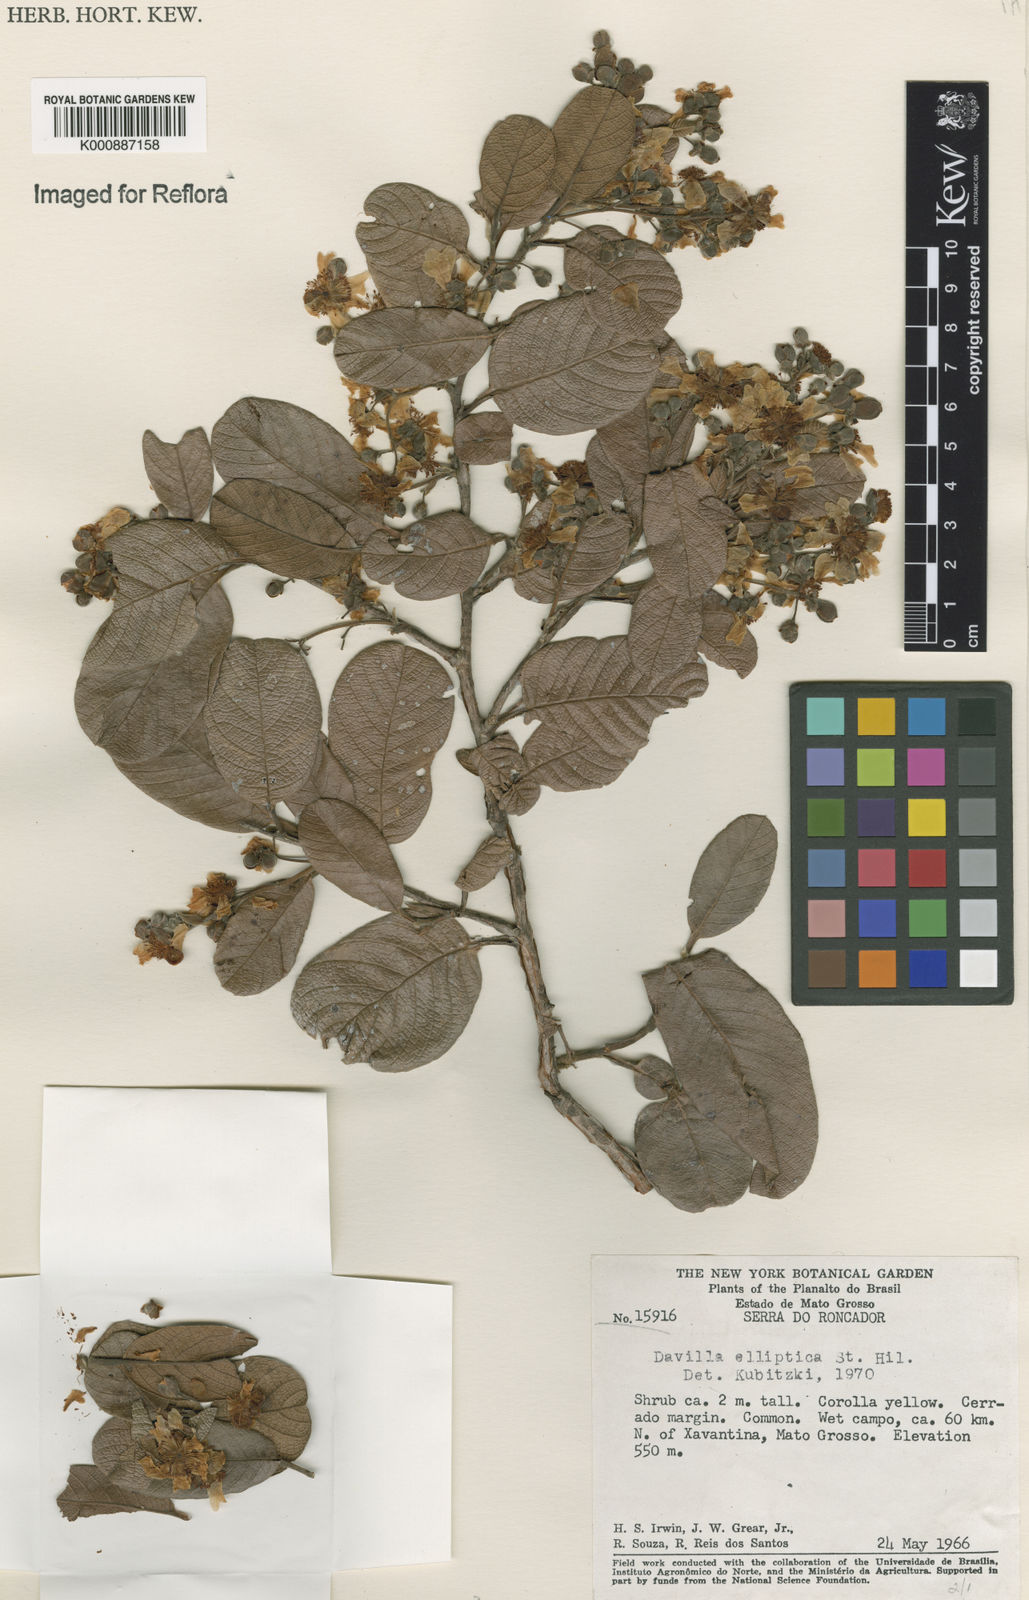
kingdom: Plantae
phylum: Tracheophyta
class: Magnoliopsida
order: Dilleniales
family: Dilleniaceae
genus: Davilla
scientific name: Davilla elliptica
